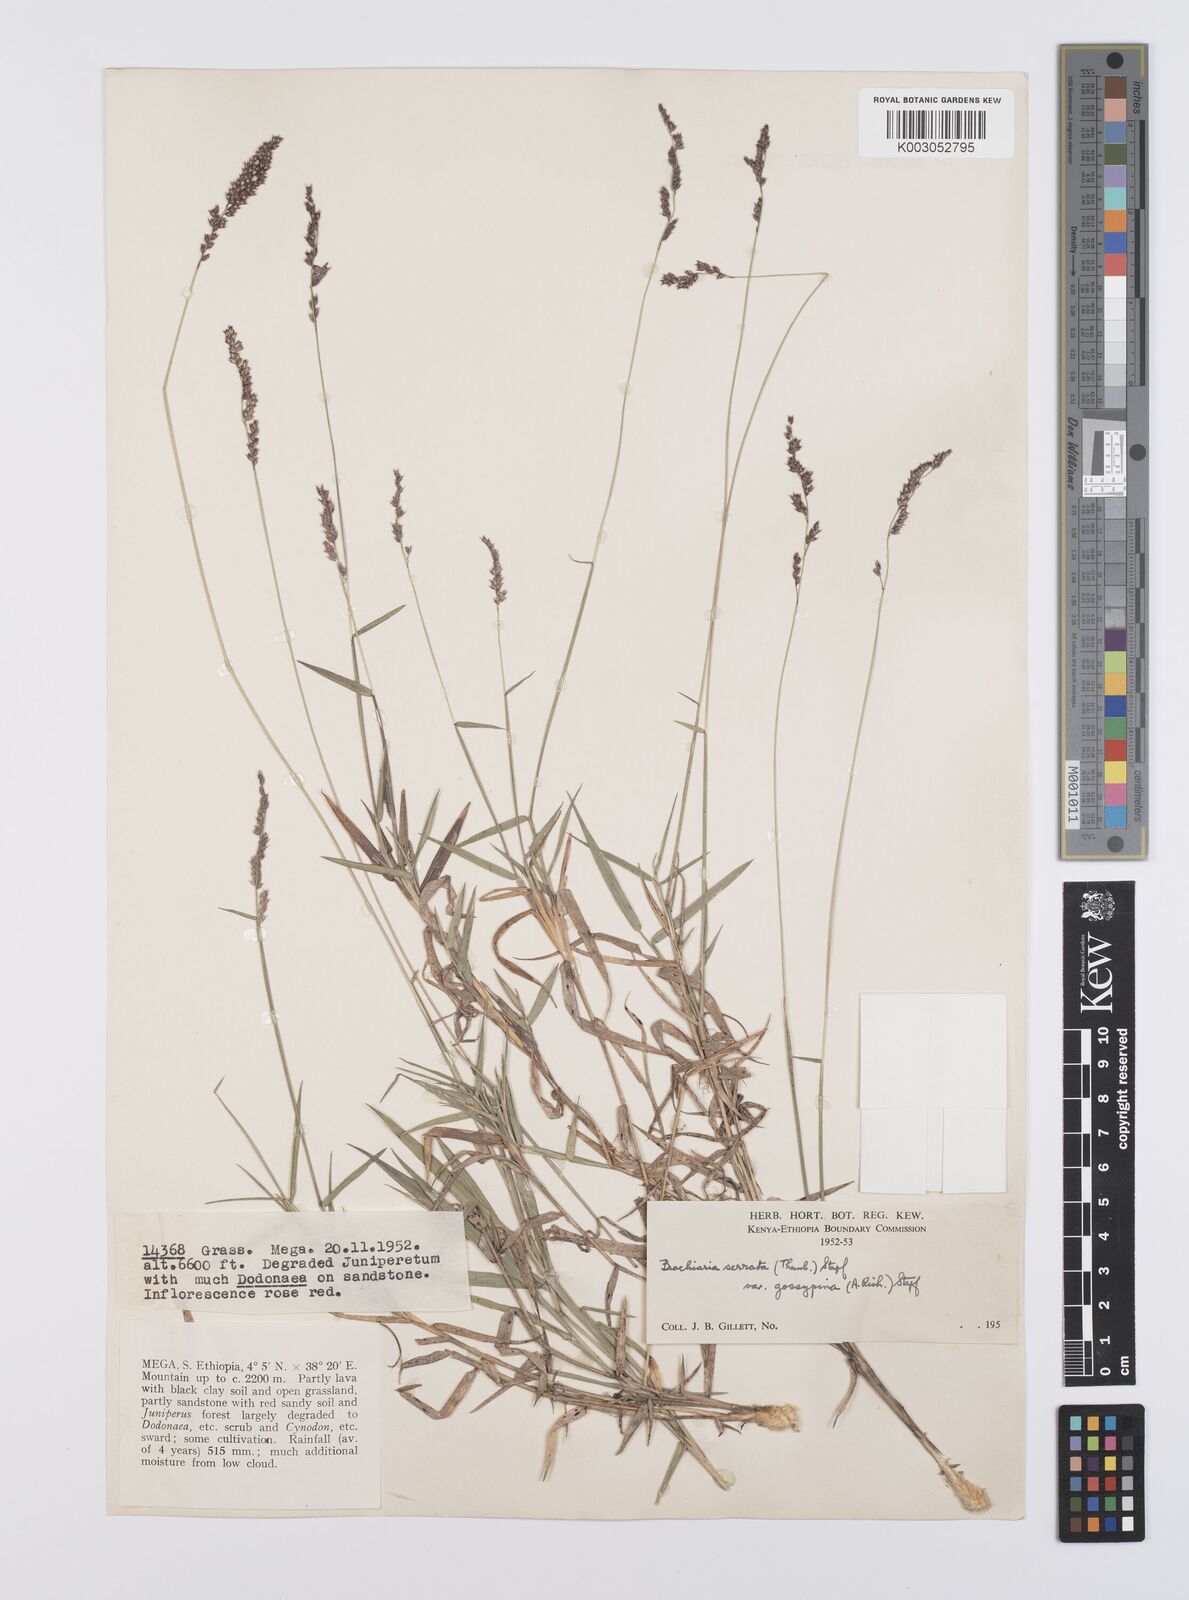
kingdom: Plantae
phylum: Tracheophyta
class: Liliopsida
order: Poales
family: Poaceae
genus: Urochloa
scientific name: Urochloa serrata
